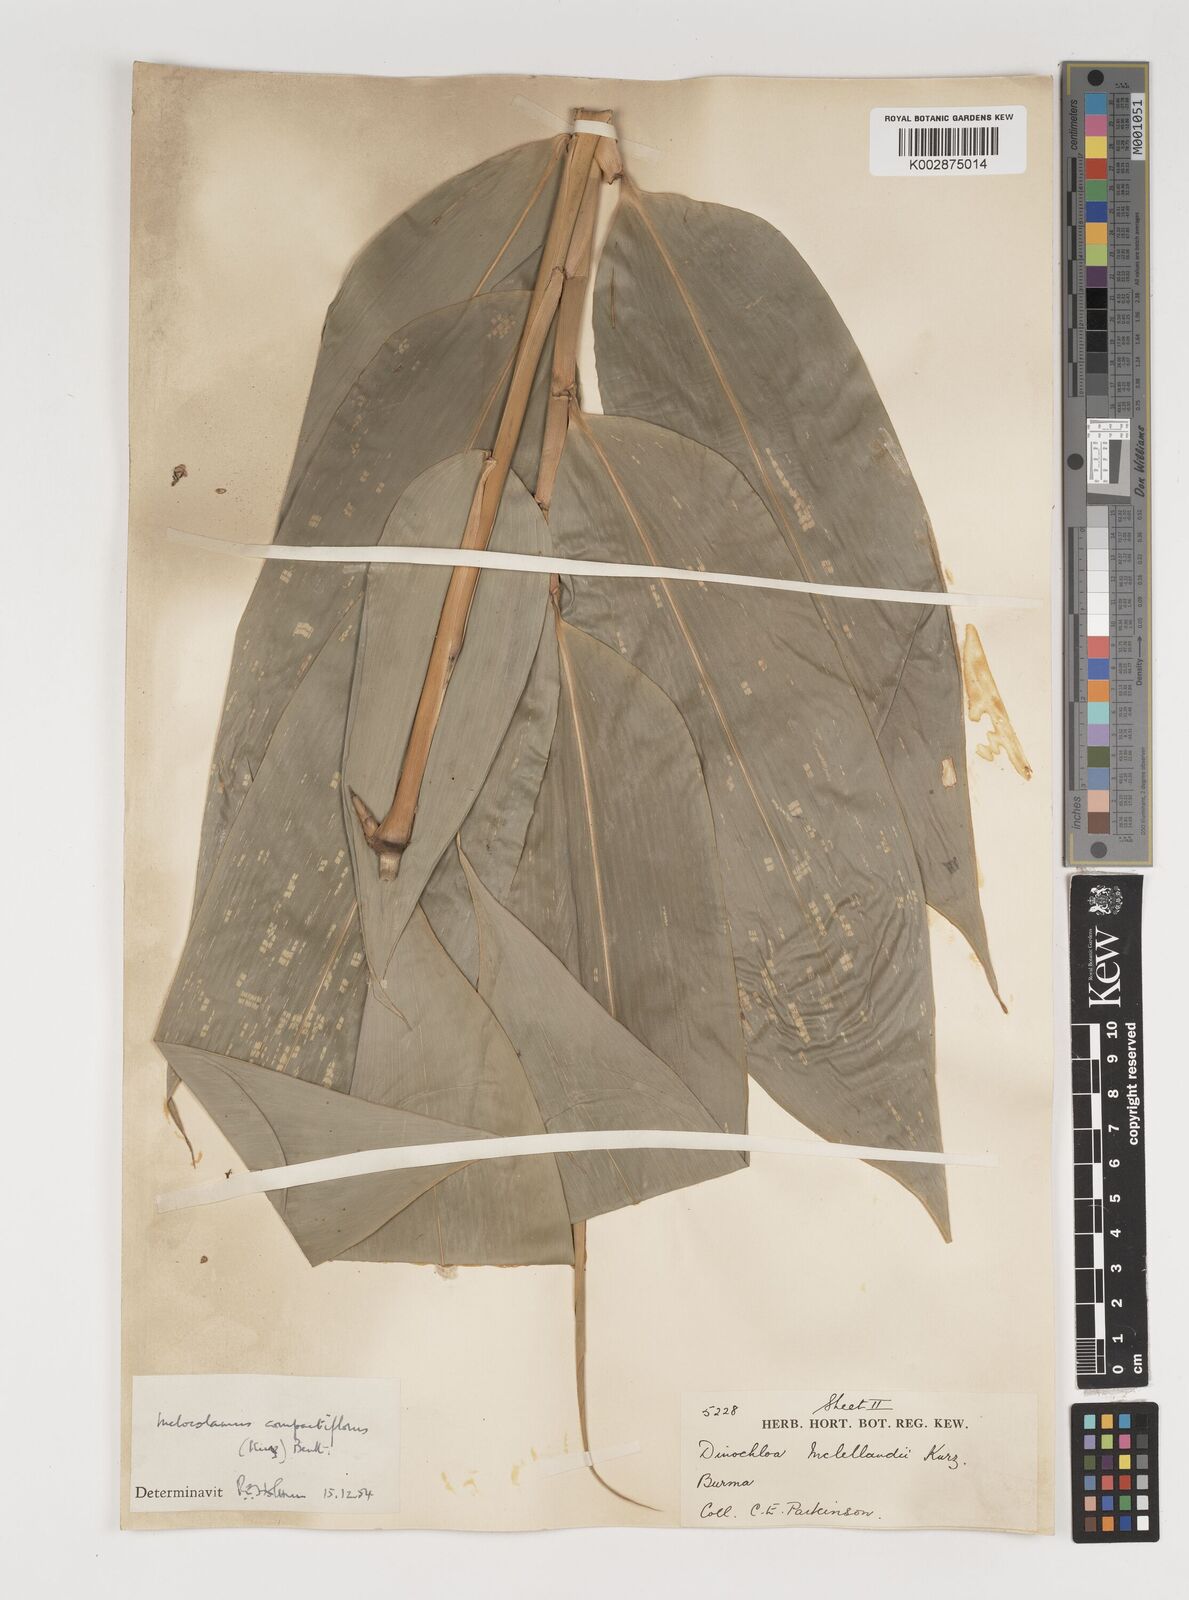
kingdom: Plantae
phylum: Tracheophyta
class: Liliopsida
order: Poales
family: Poaceae
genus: Melocalamus
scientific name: Melocalamus compactiflorus
